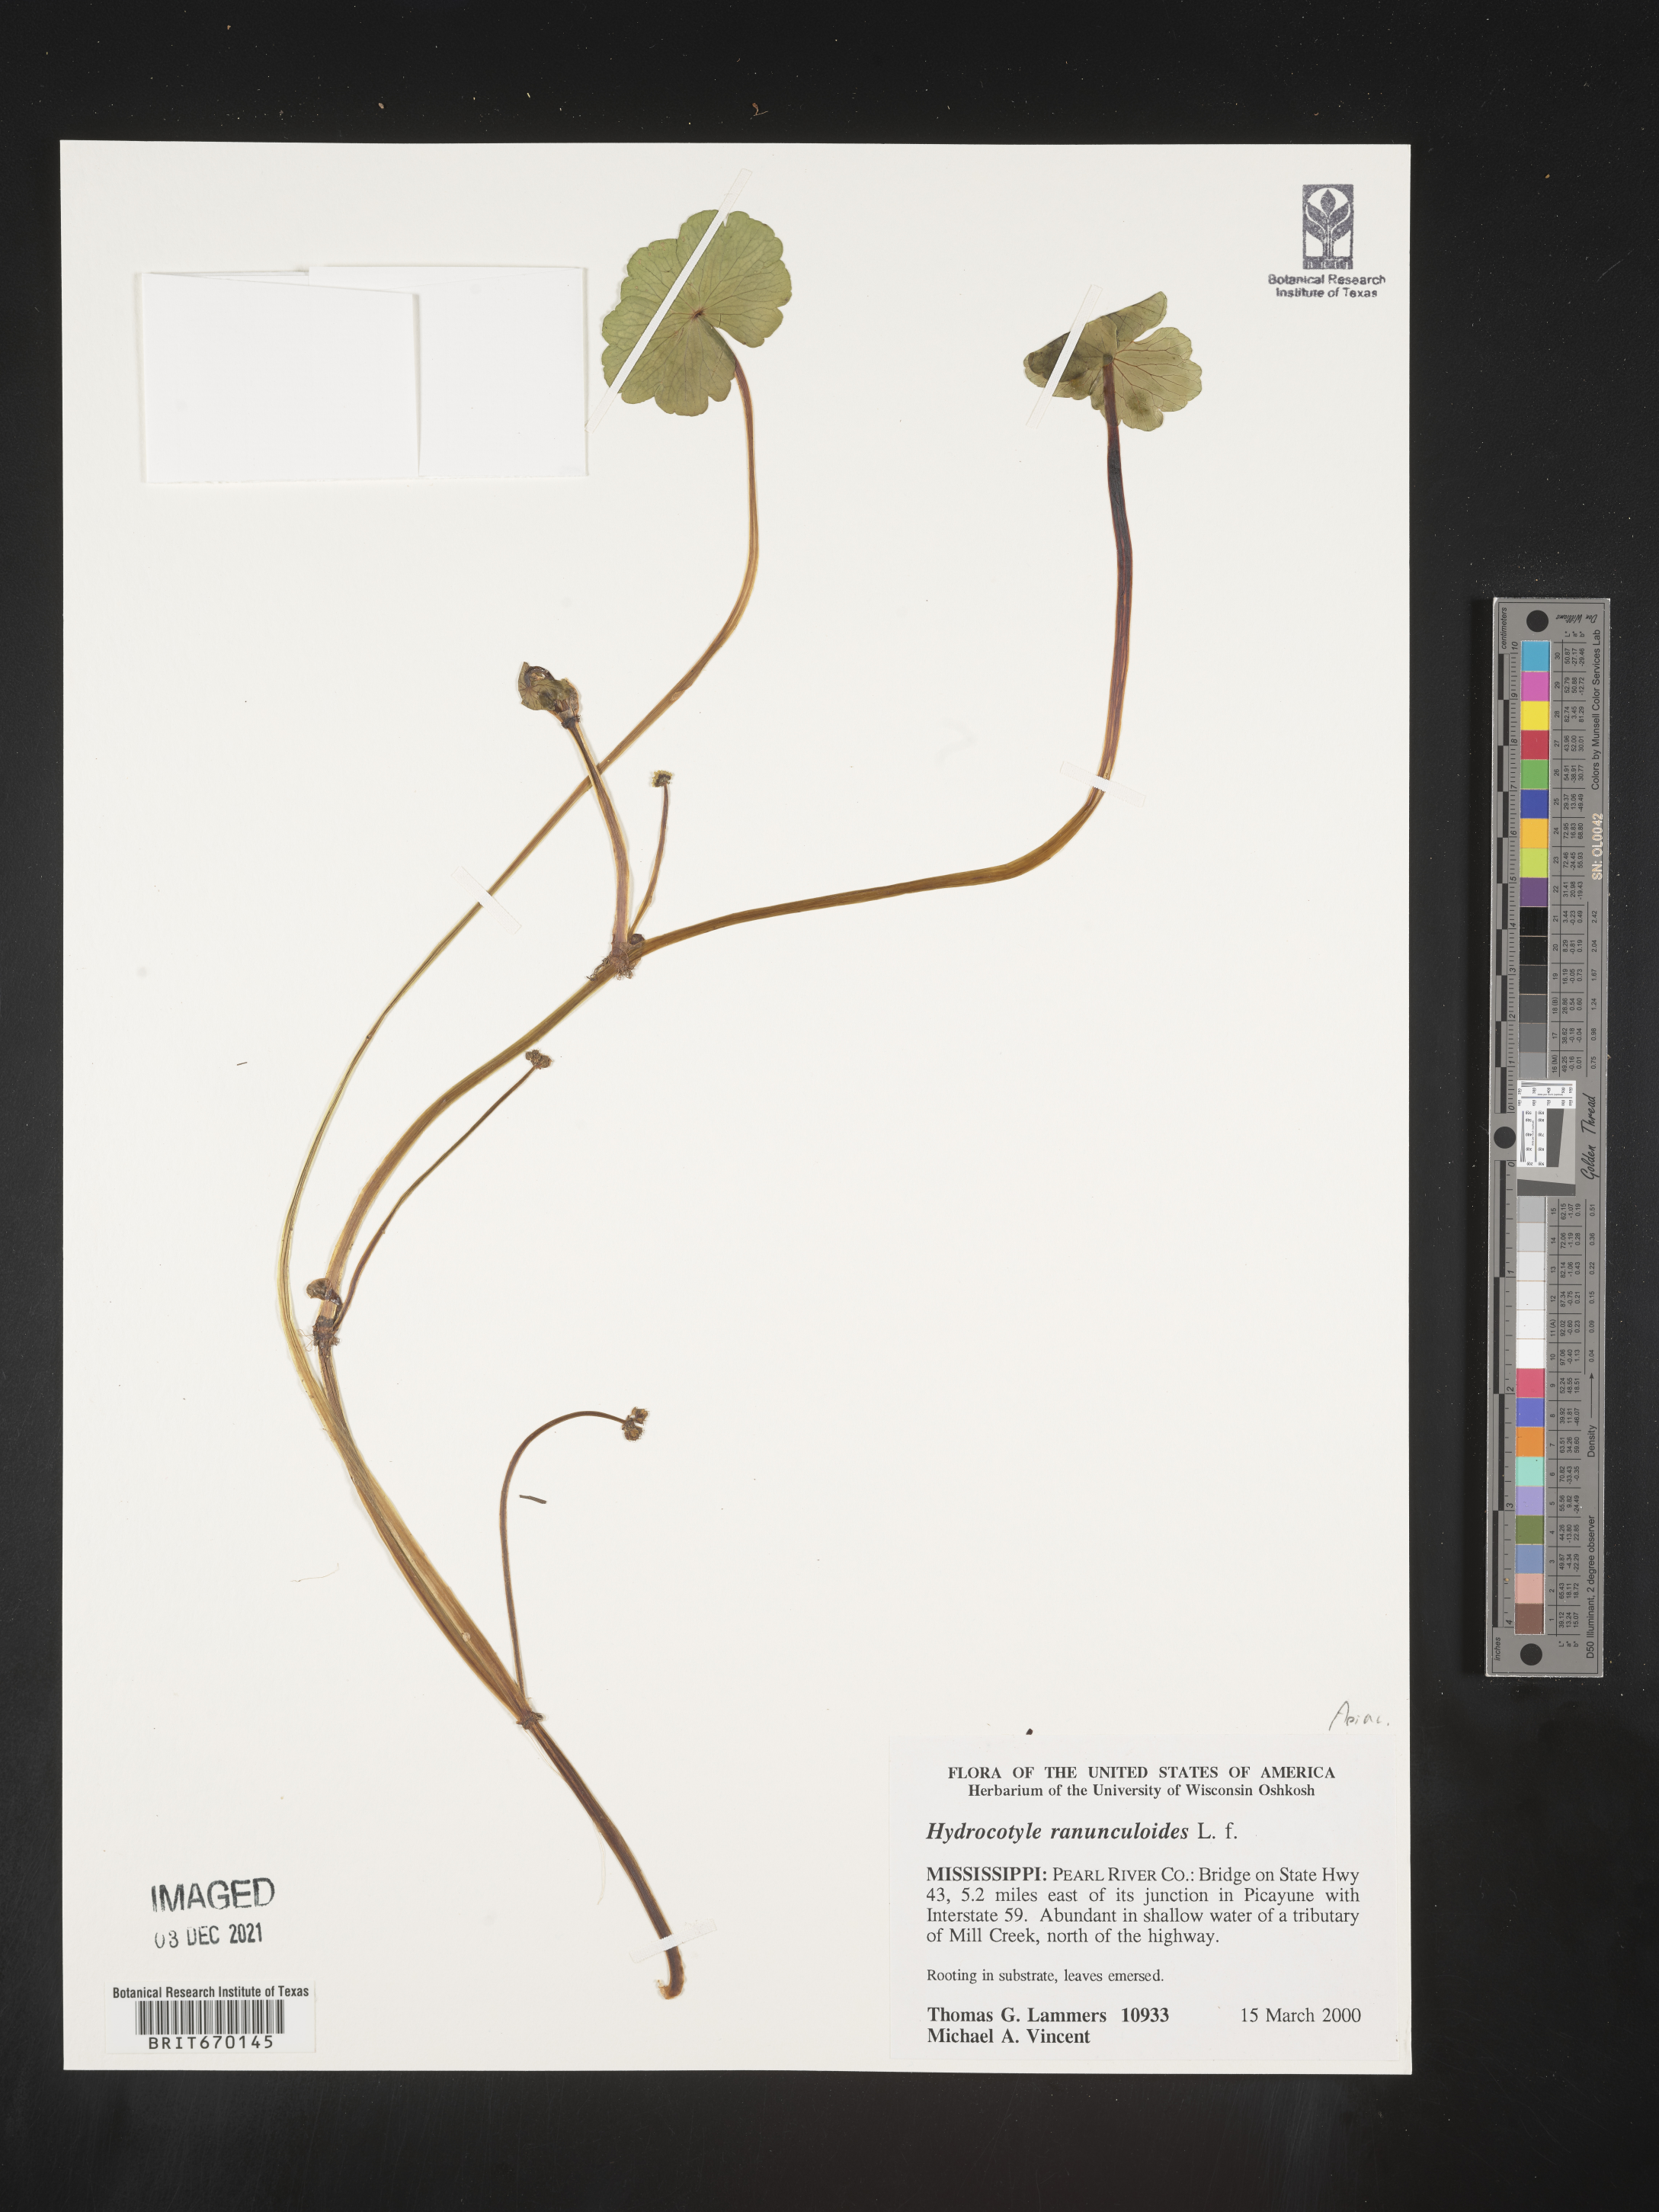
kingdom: Plantae
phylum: Tracheophyta
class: Magnoliopsida
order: Apiales
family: Araliaceae
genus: Hydrocotyle
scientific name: Hydrocotyle ranunculoides
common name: Floating pennywort
